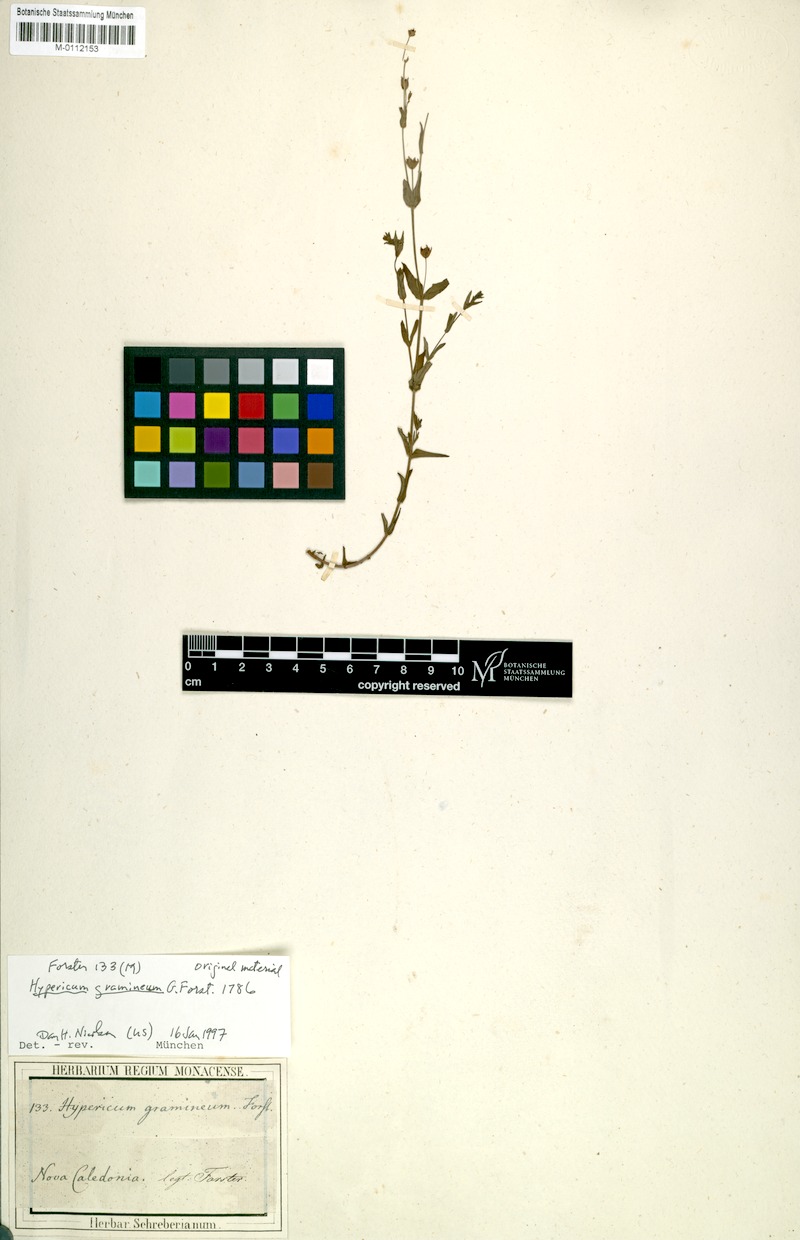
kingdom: Plantae
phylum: Tracheophyta
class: Magnoliopsida
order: Malpighiales
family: Hypericaceae
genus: Hypericum
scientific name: Hypericum gramineum
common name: Grassy st. johnswort
